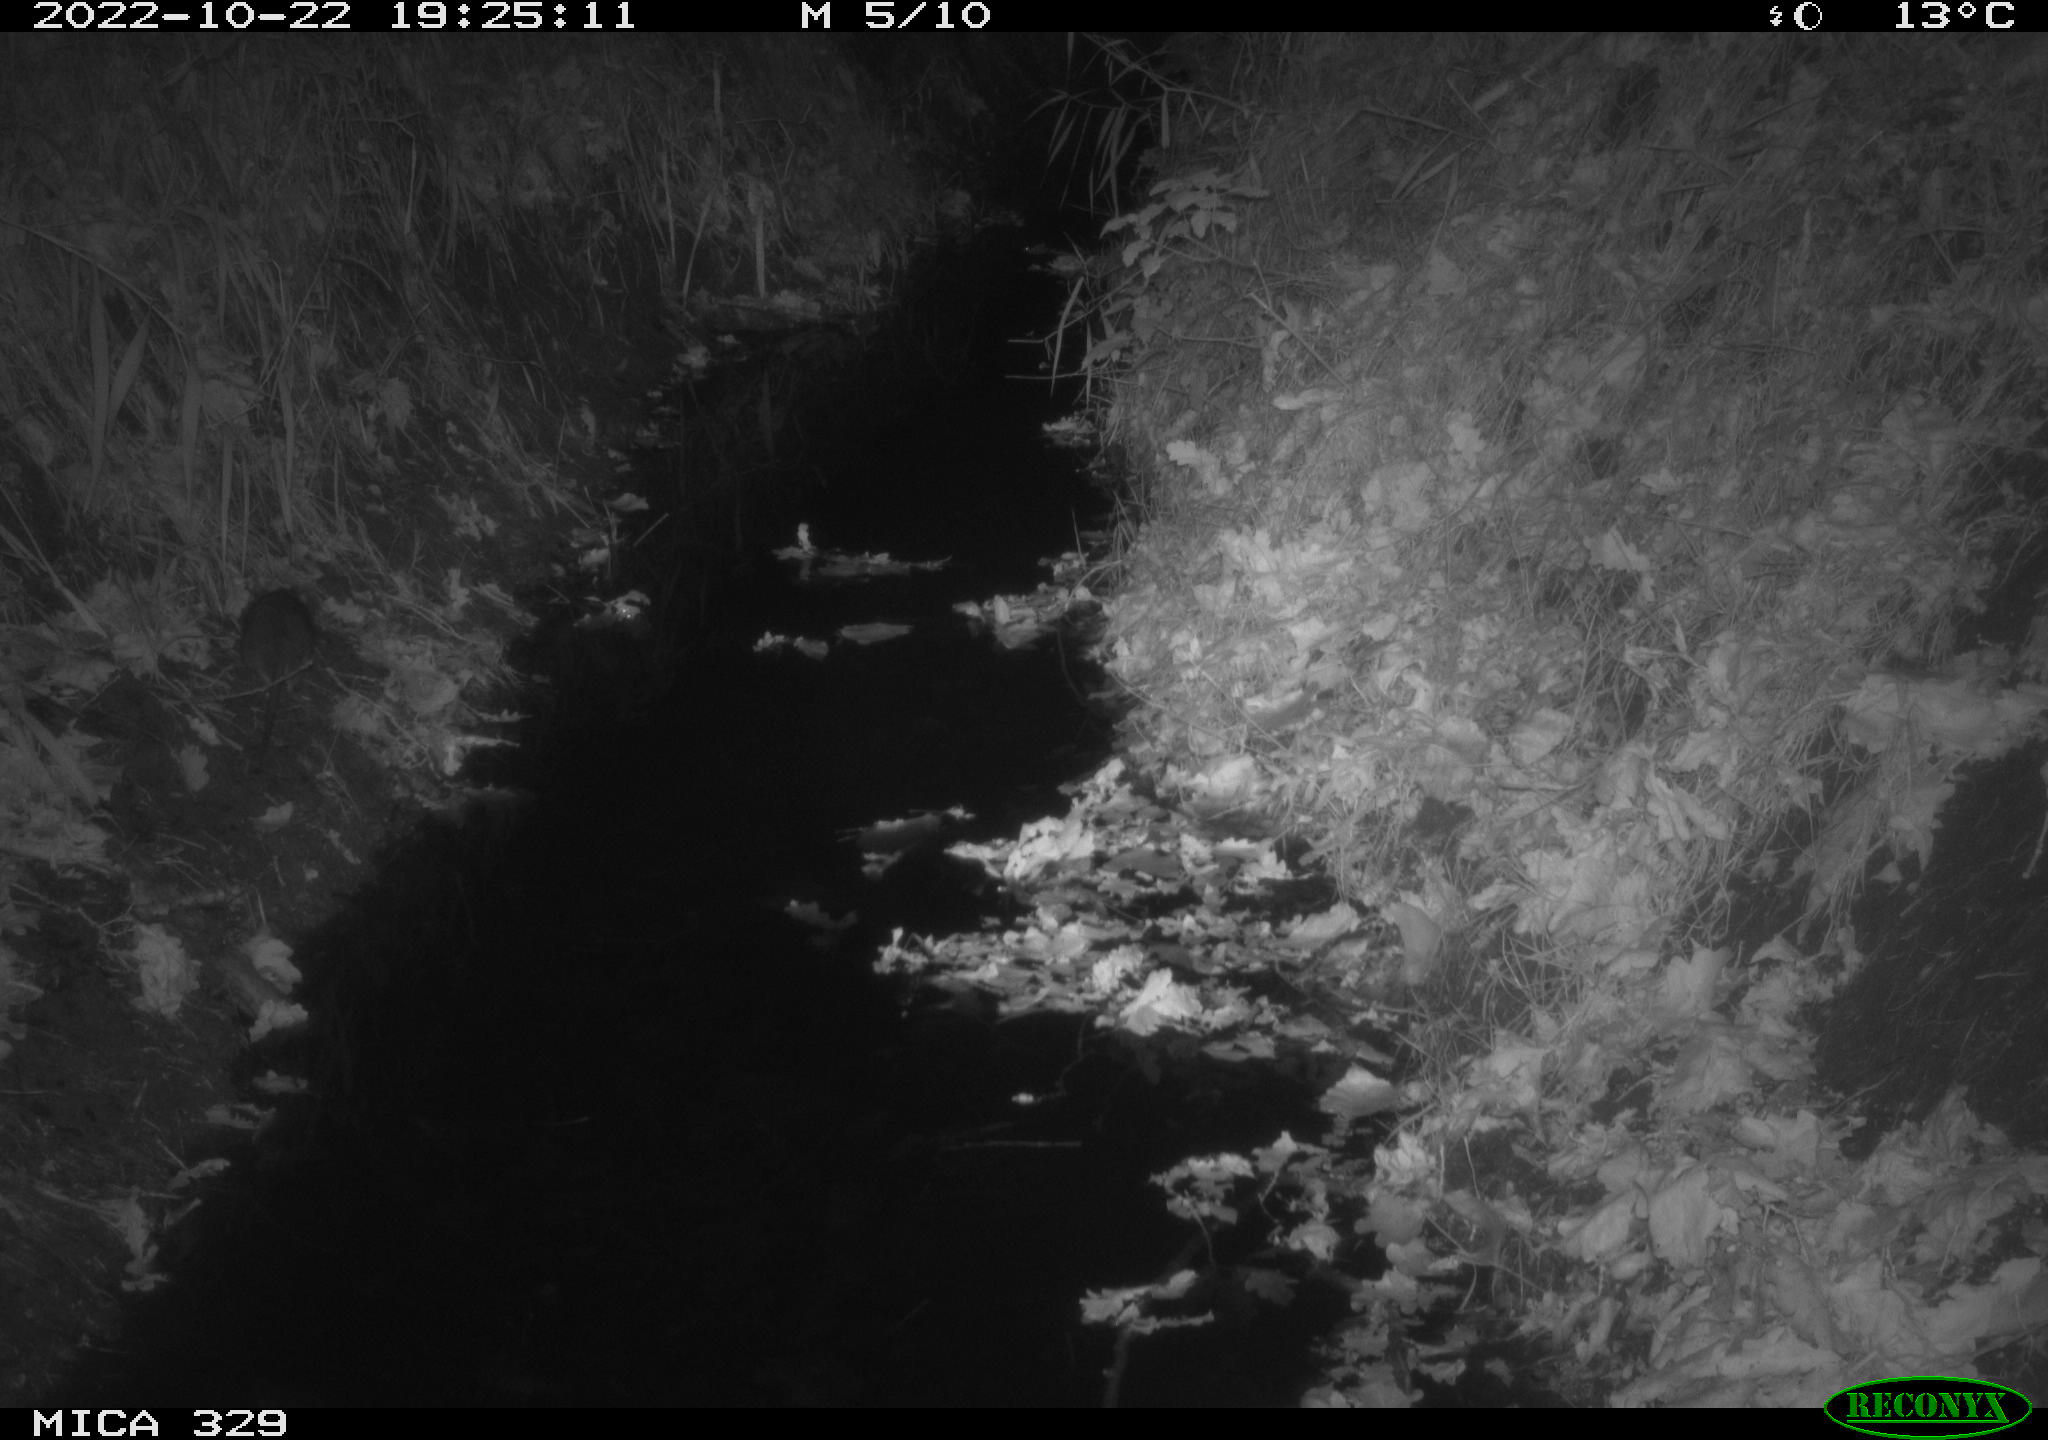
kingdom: Animalia
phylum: Chordata
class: Mammalia
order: Rodentia
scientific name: Rodentia
